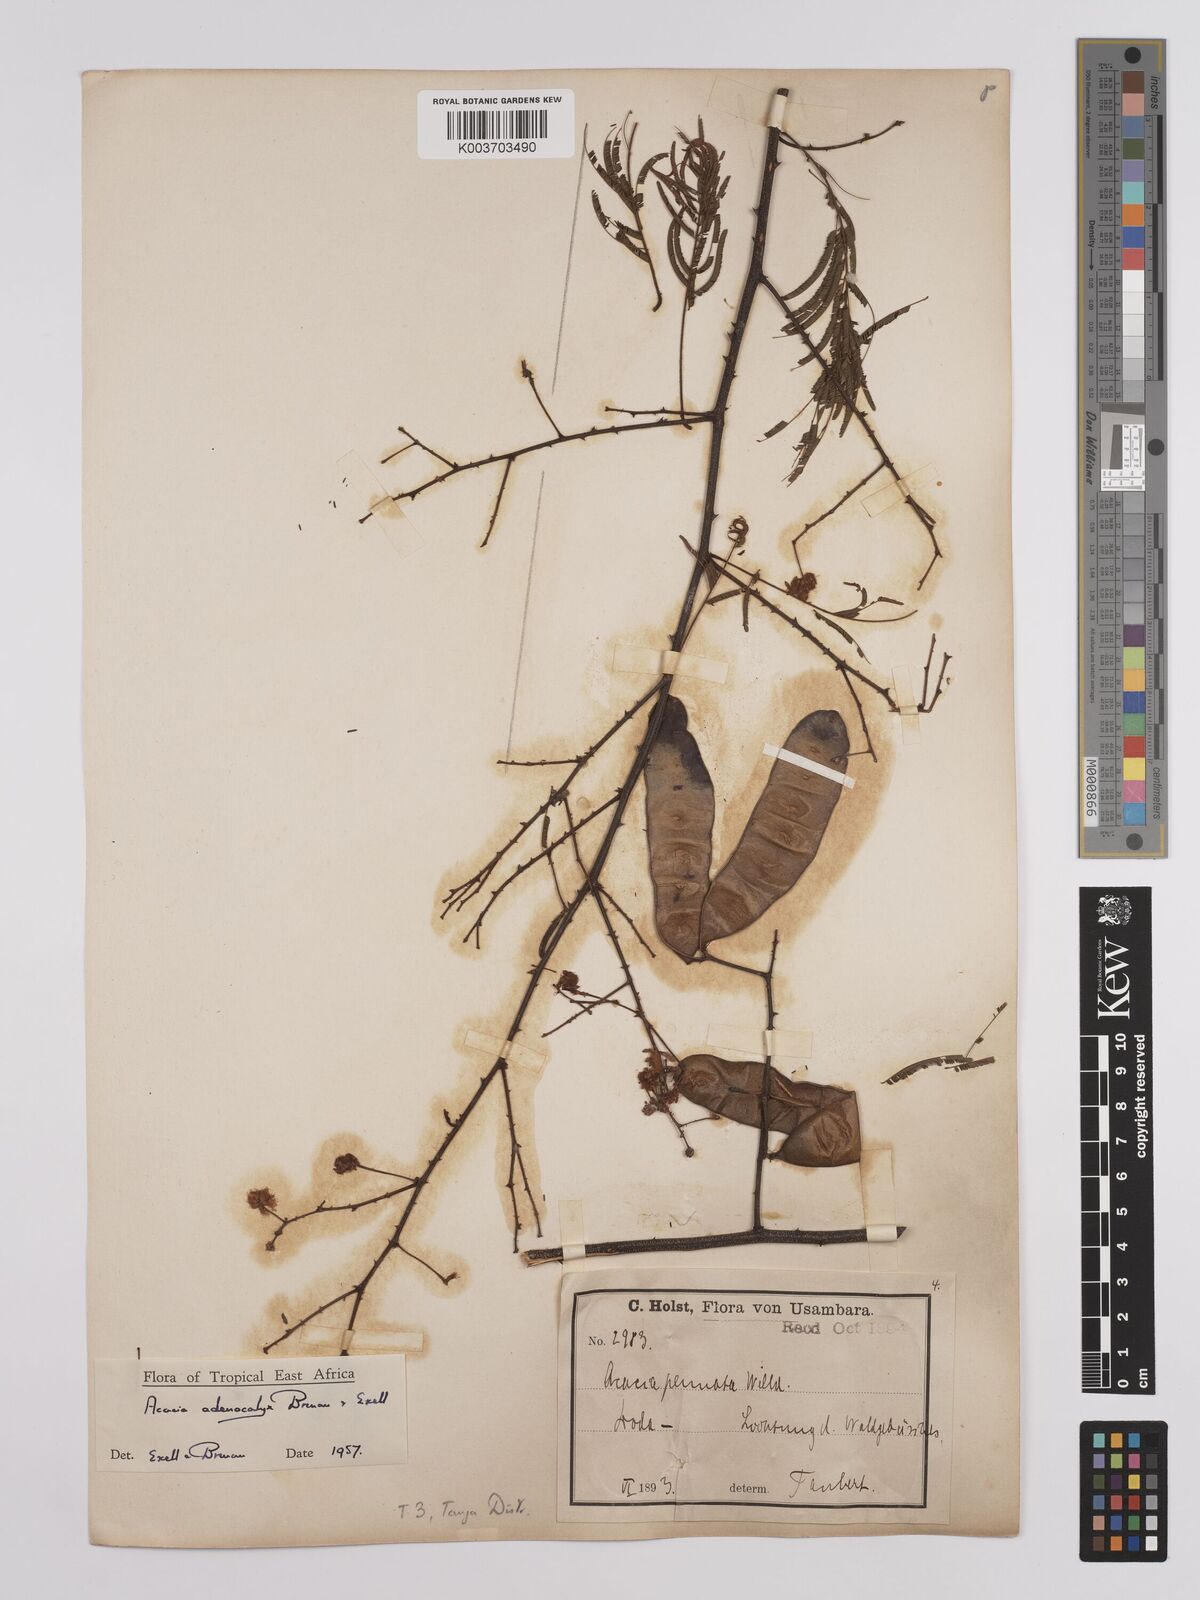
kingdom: Plantae
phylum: Tracheophyta
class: Magnoliopsida
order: Fabales
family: Fabaceae
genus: Senegalia
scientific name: Senegalia adenocalyx
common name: Pfurura
